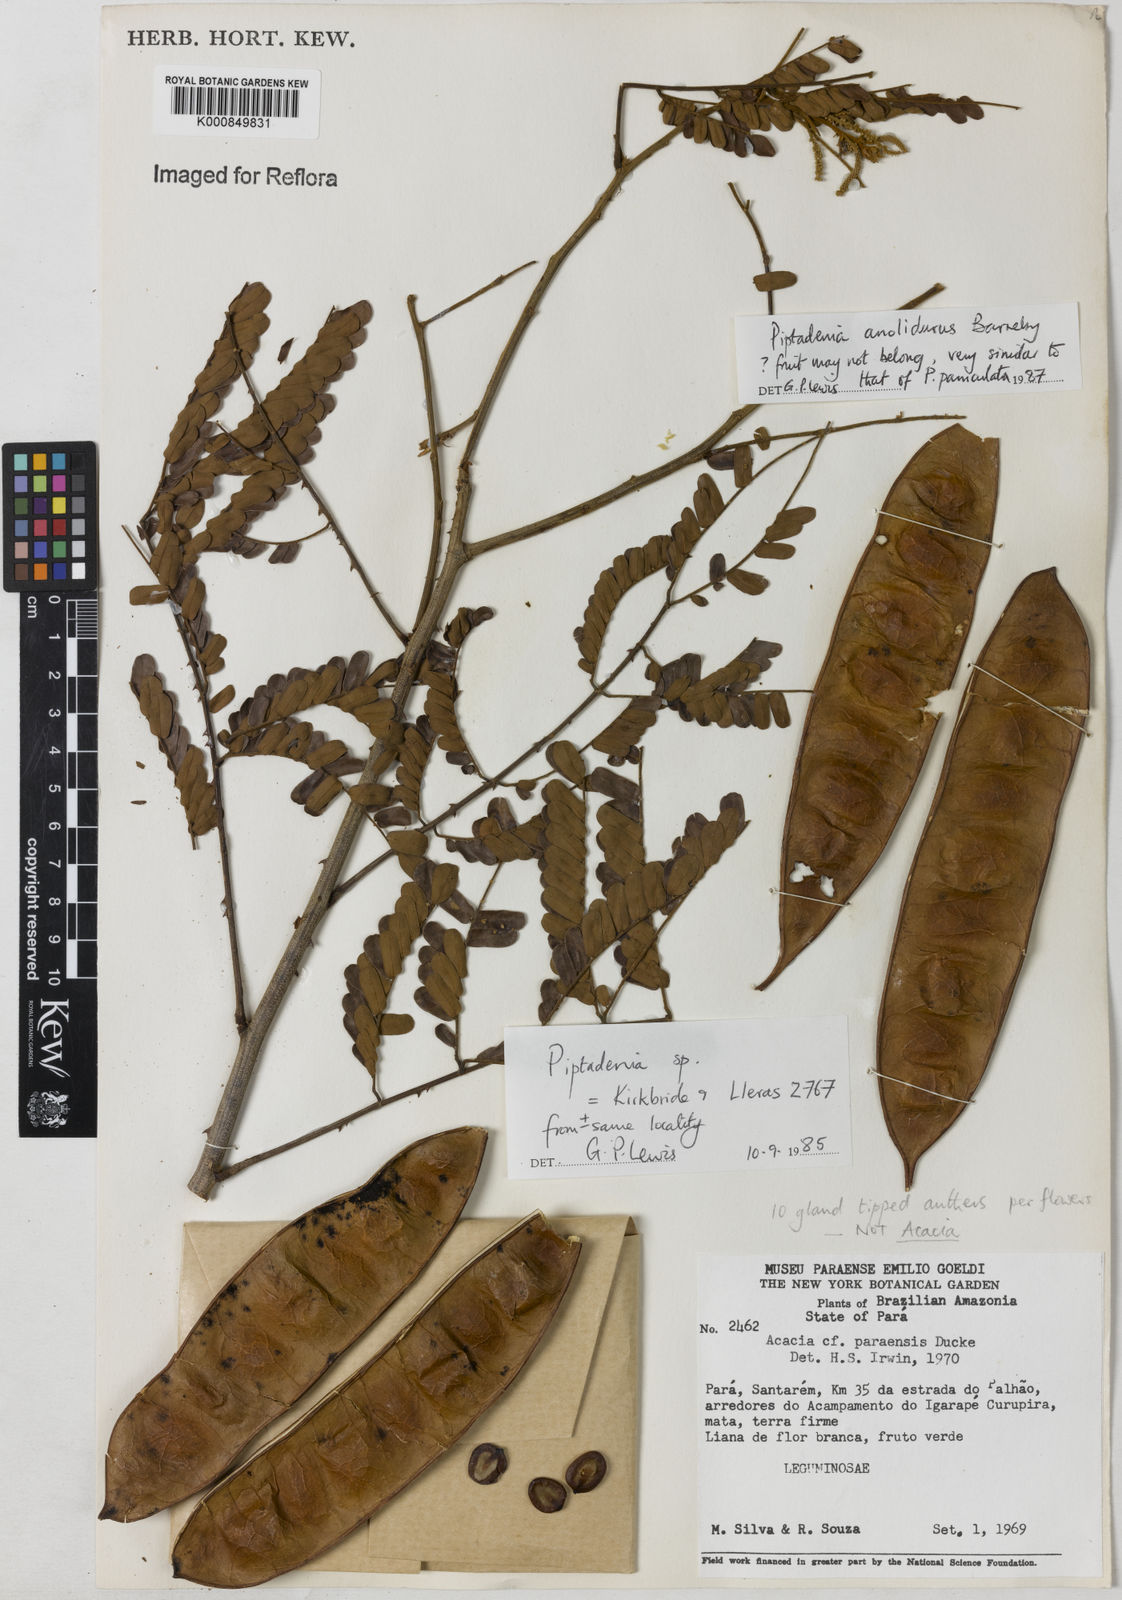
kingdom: Plantae
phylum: Tracheophyta
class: Magnoliopsida
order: Fabales
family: Fabaceae
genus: Piptadenia
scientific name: Piptadenia anolidurus
